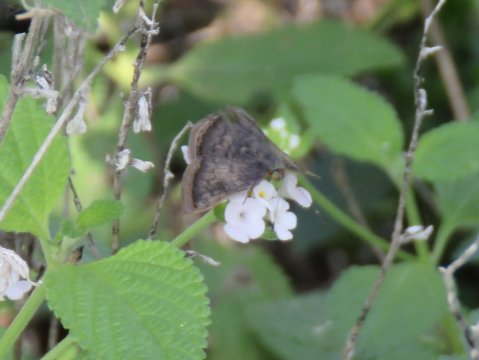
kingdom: Animalia
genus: Caria
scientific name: Caria ino
